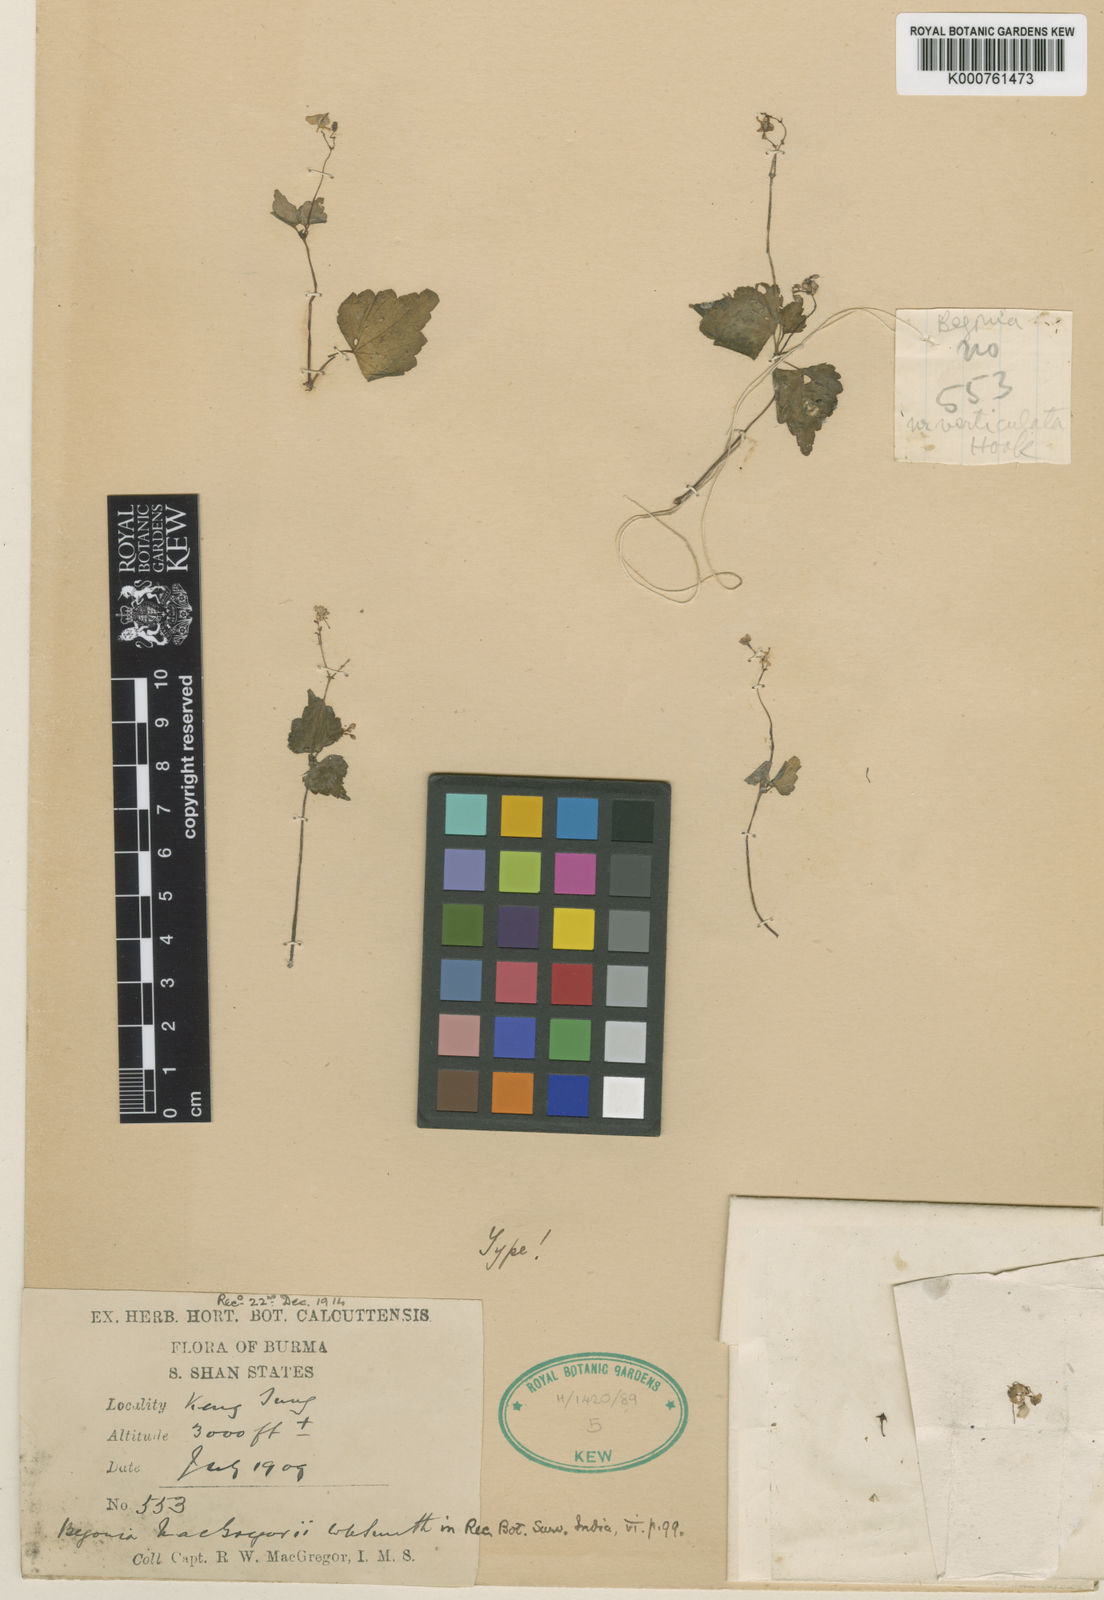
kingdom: Plantae
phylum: Tracheophyta
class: Magnoliopsida
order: Cucurbitales
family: Begoniaceae
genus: Begonia
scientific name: Begonia demissa
